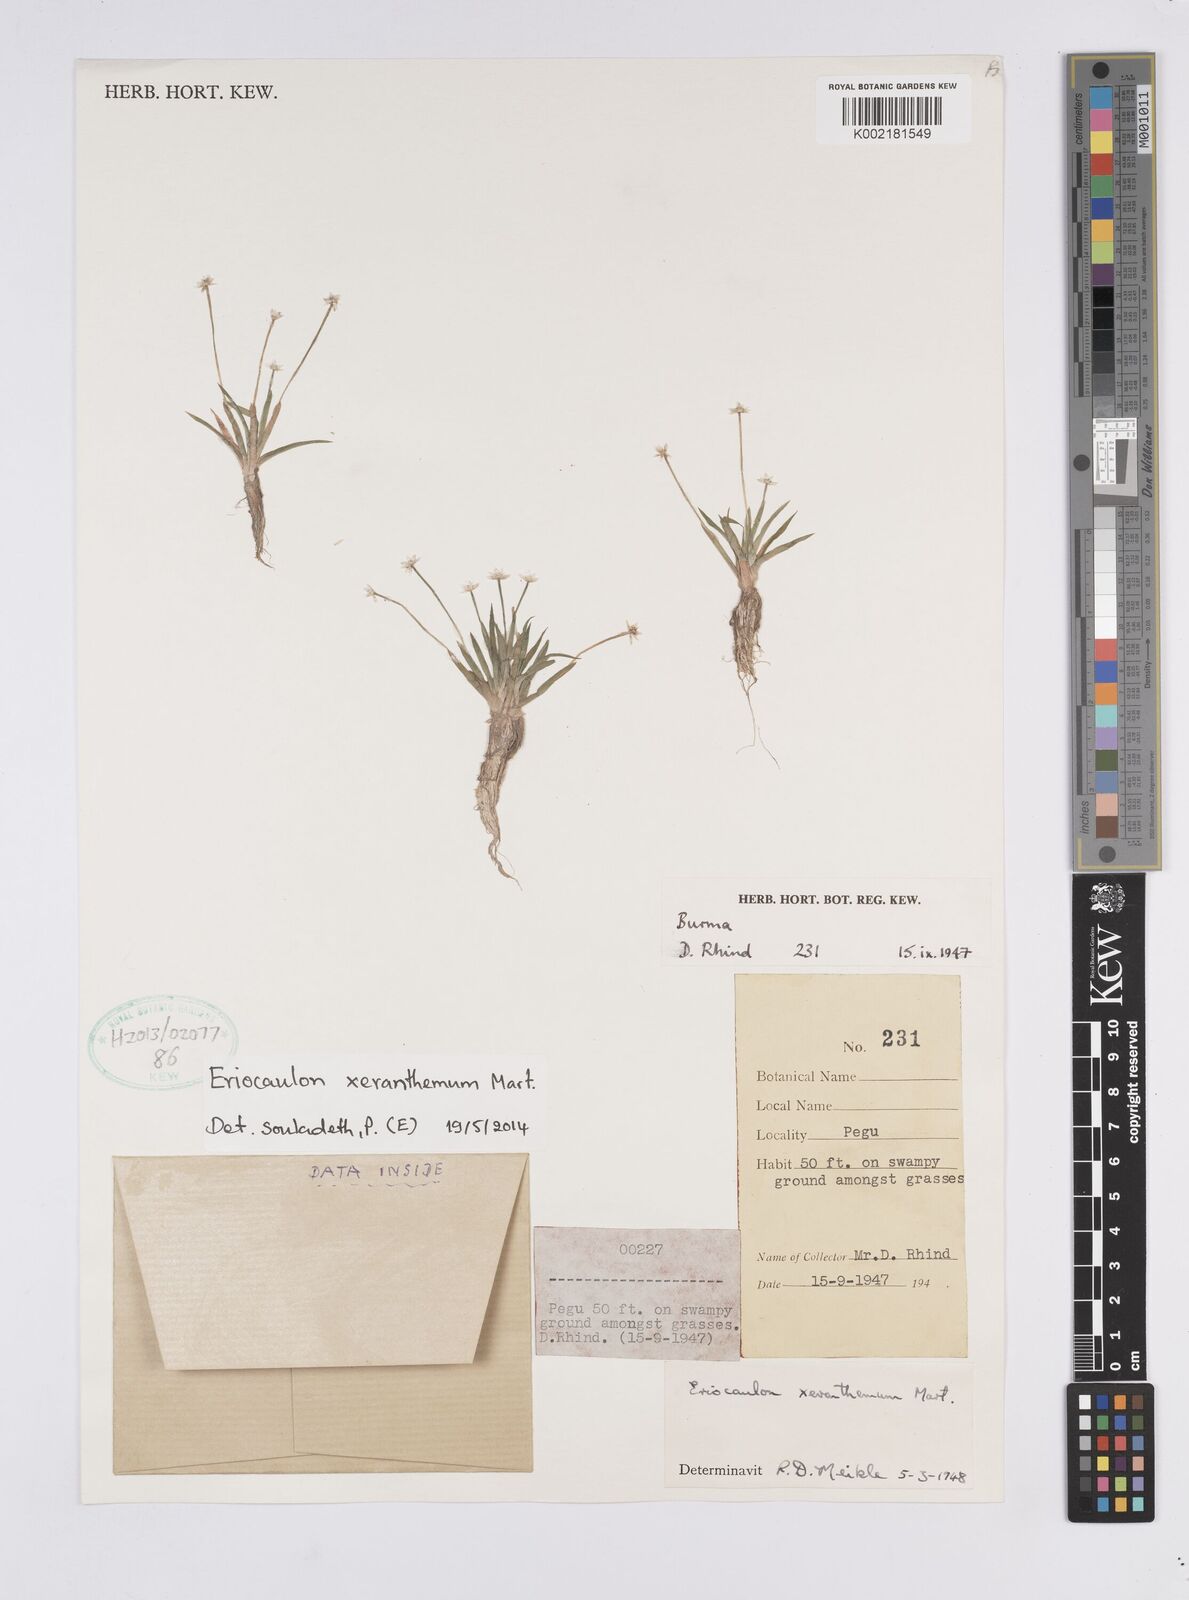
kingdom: Plantae
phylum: Tracheophyta
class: Liliopsida
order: Poales
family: Eriocaulaceae
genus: Eriocaulon
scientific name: Eriocaulon xeranthemum
